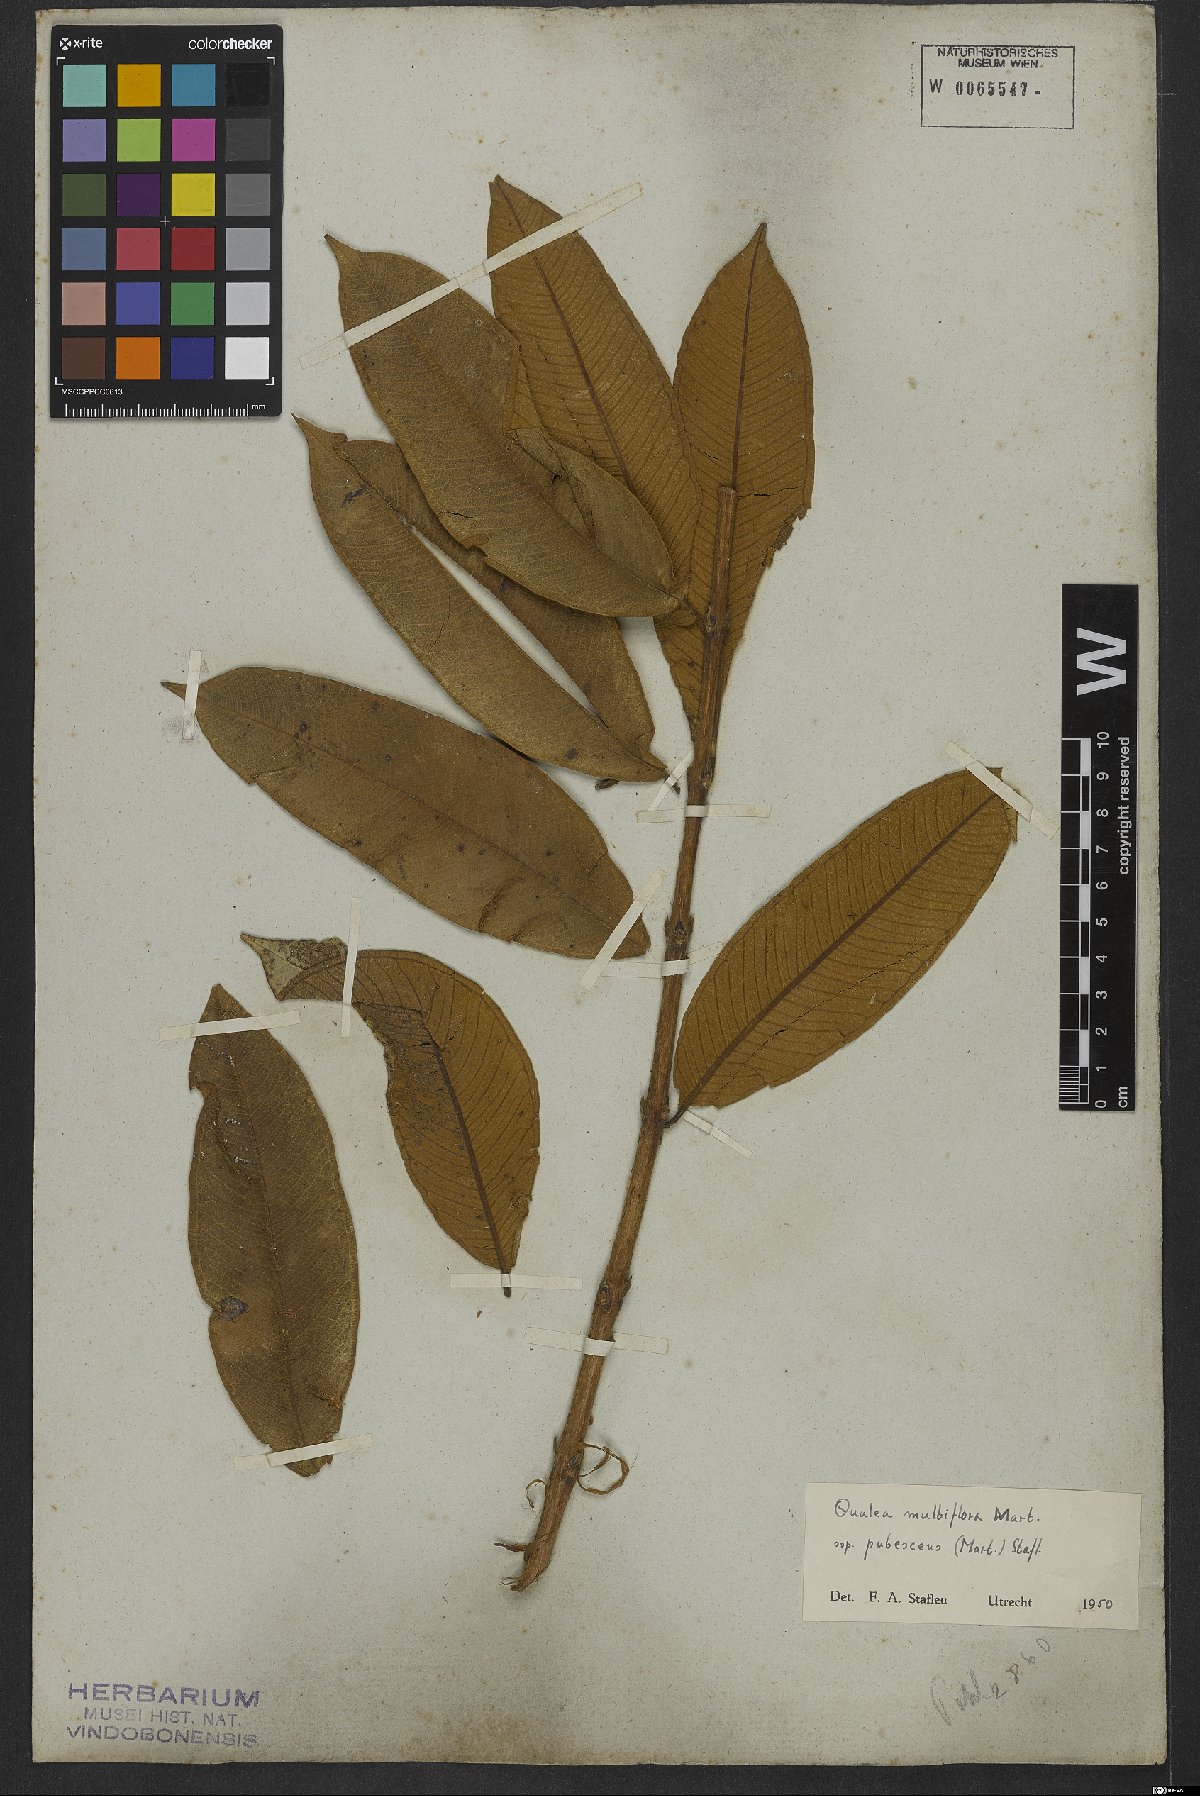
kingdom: Plantae
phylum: Tracheophyta
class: Magnoliopsida
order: Myrtales
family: Vochysiaceae
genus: Qualea
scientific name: Qualea multiflora
